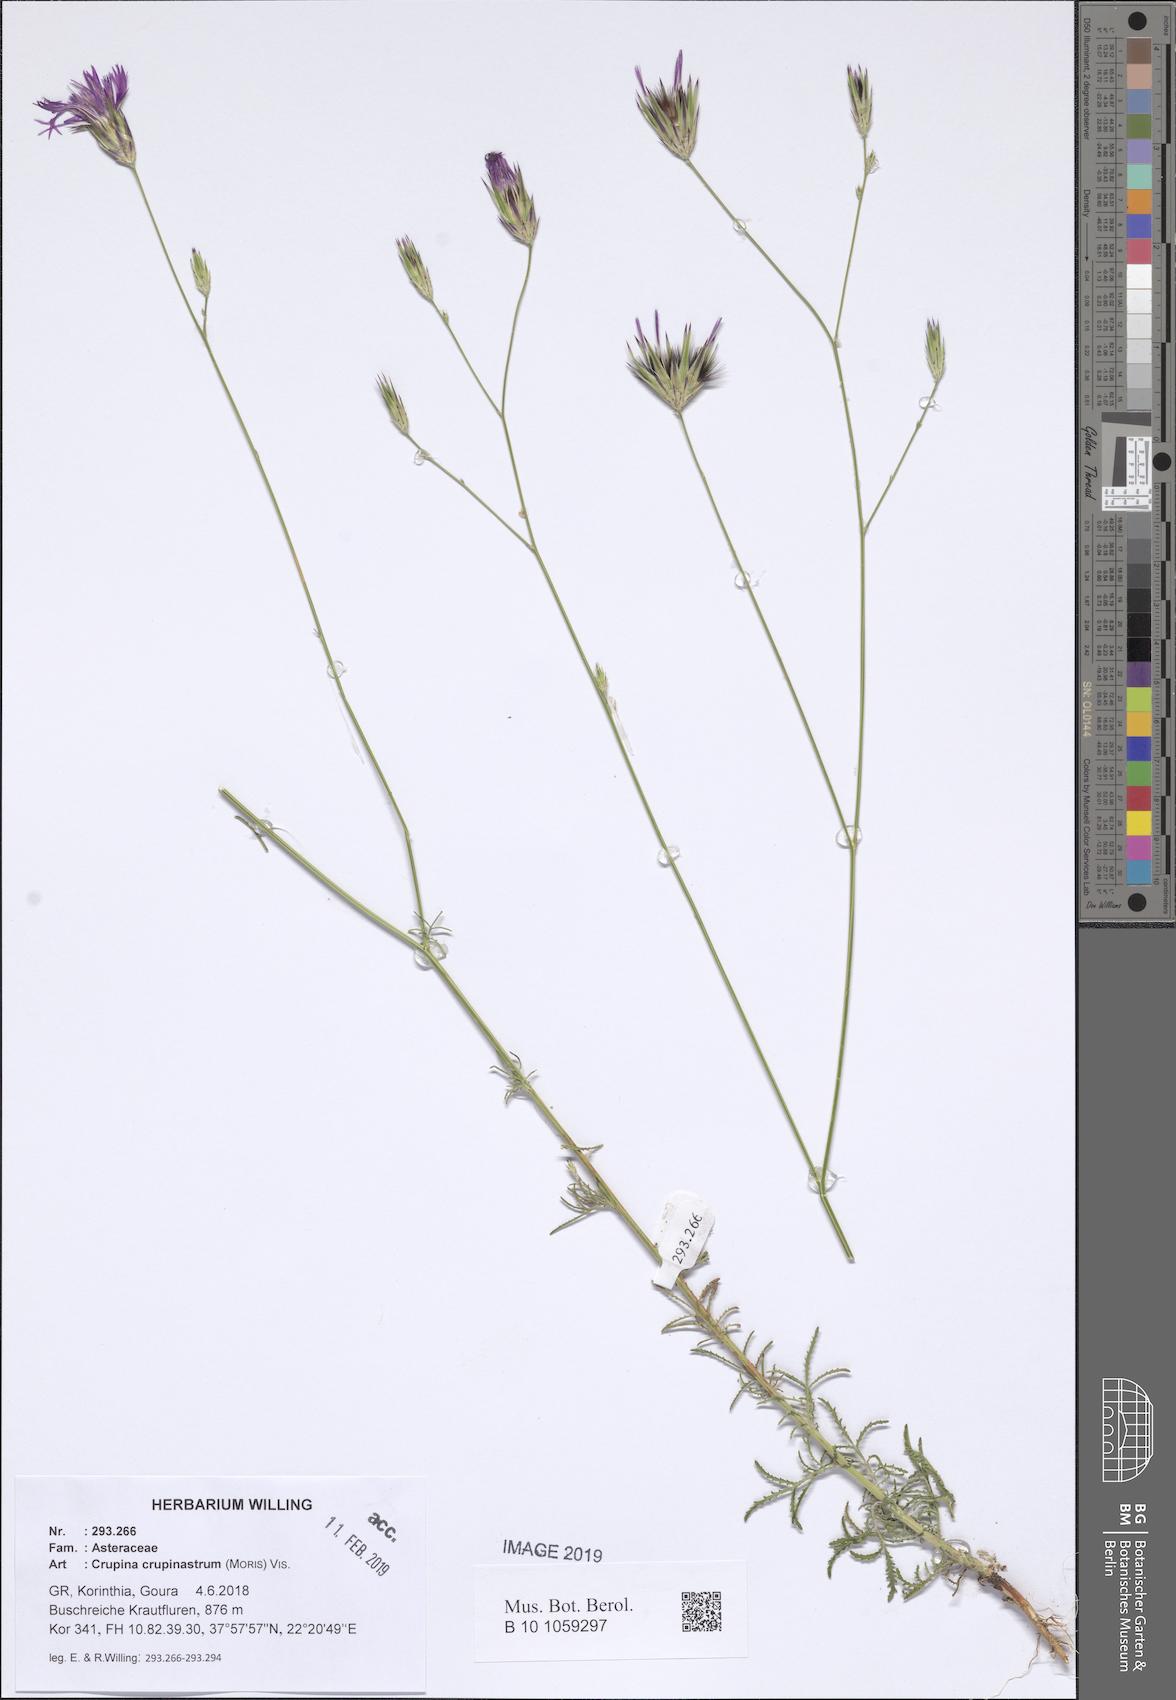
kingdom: Plantae
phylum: Tracheophyta
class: Magnoliopsida
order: Asterales
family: Asteraceae
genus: Crupina
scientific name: Crupina crupinastrum
